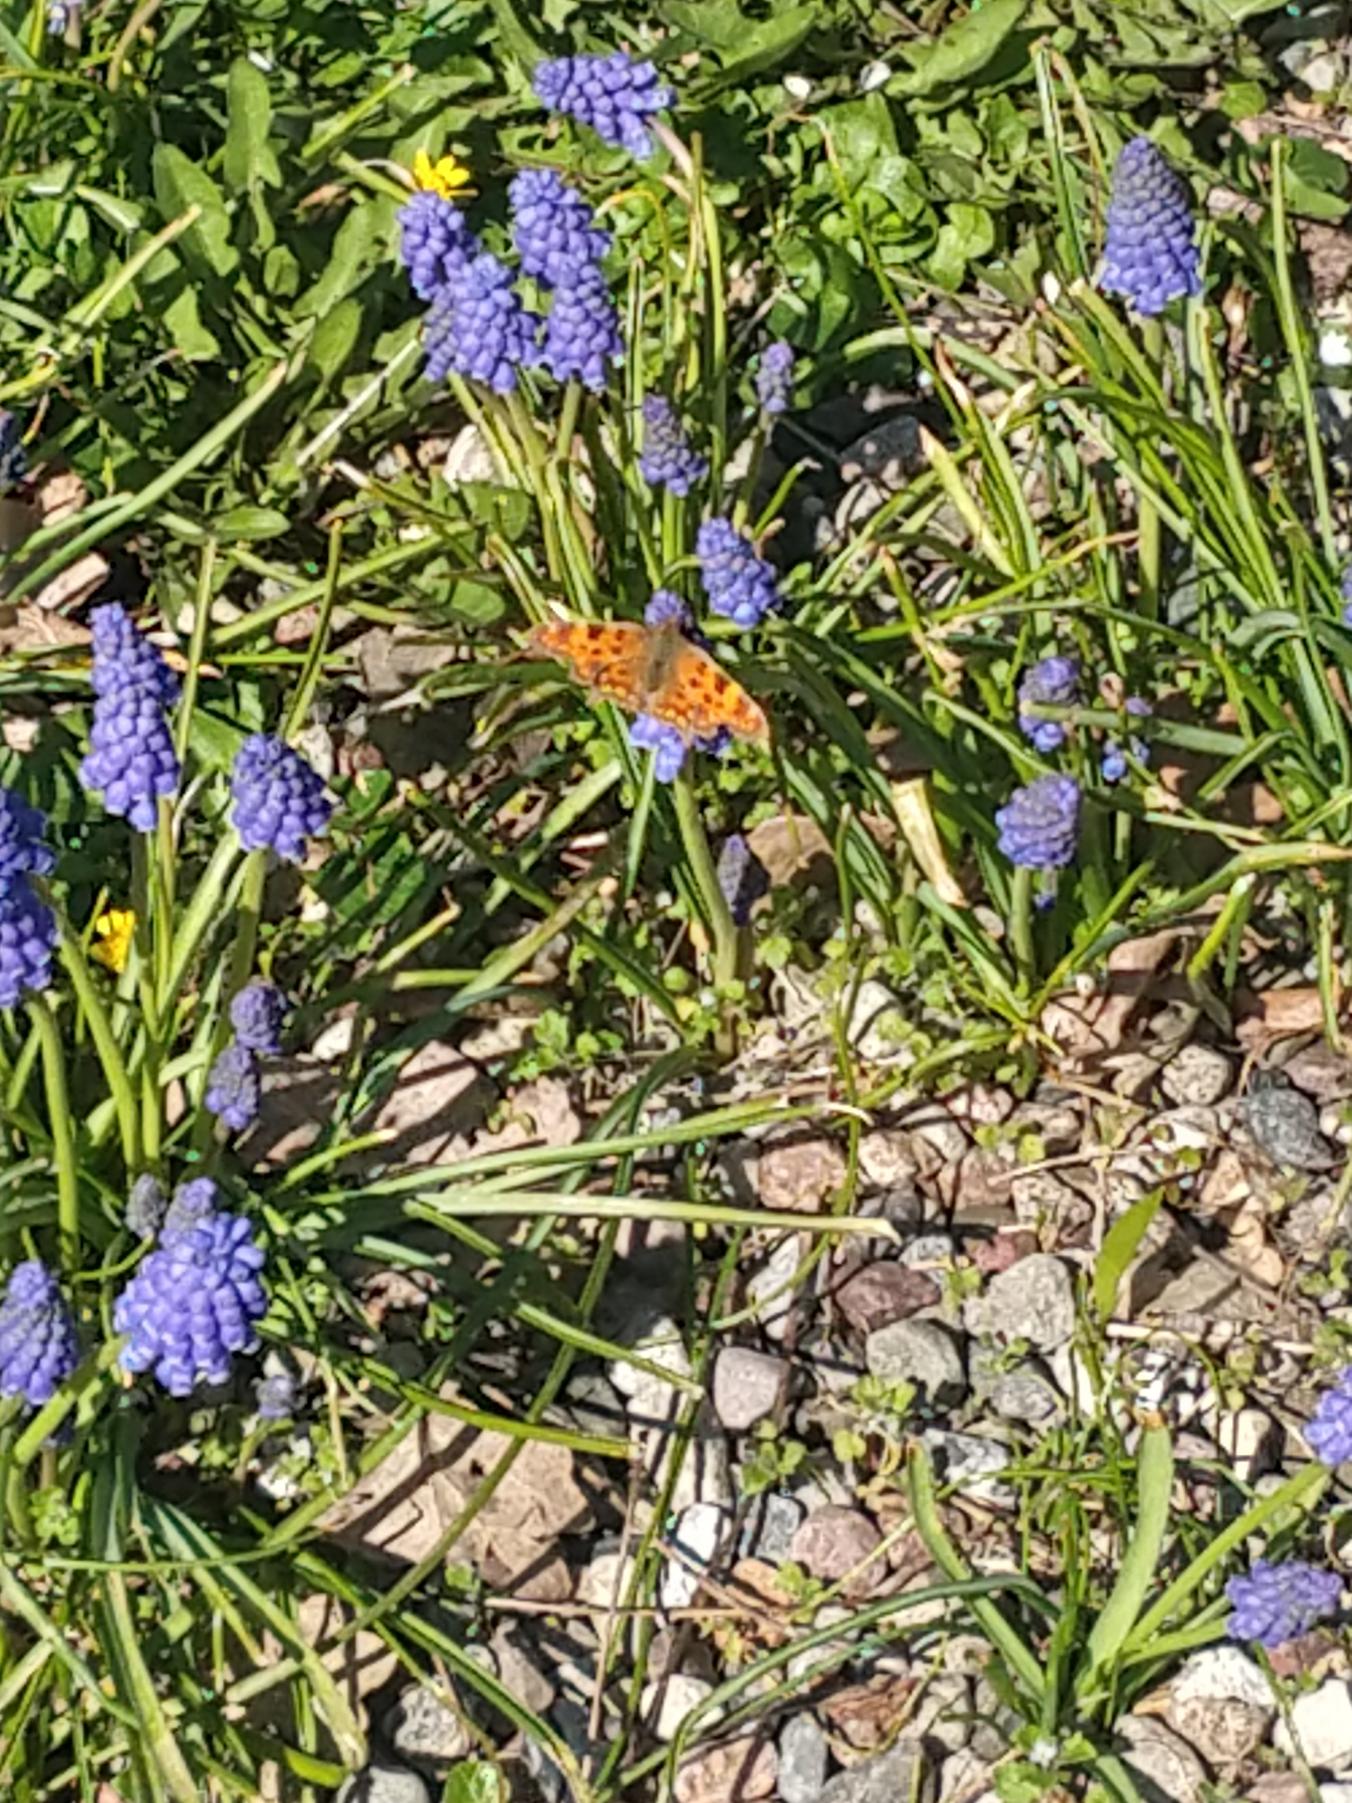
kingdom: Animalia
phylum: Arthropoda
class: Insecta
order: Lepidoptera
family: Nymphalidae
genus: Polygonia
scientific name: Polygonia c-album
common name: Det hvide C
